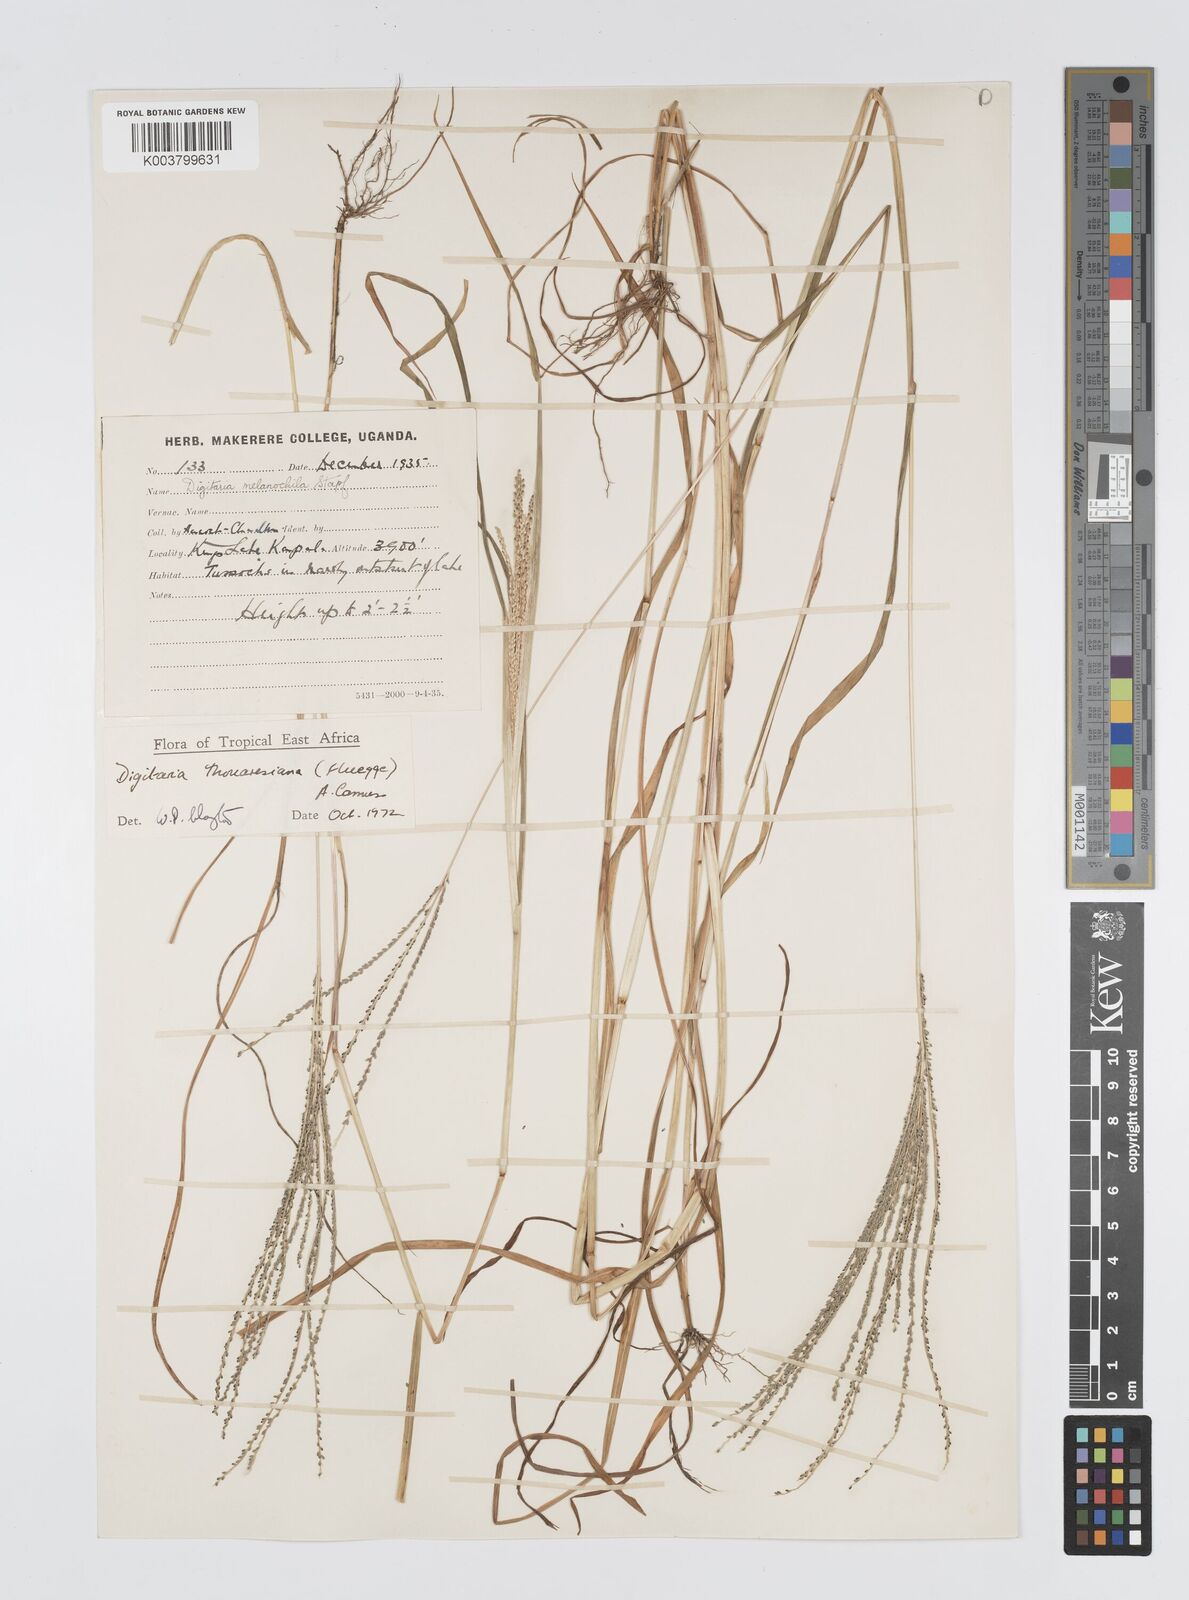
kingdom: Plantae
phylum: Tracheophyta
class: Liliopsida
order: Poales
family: Poaceae
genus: Digitaria
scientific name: Digitaria thouarsiana
